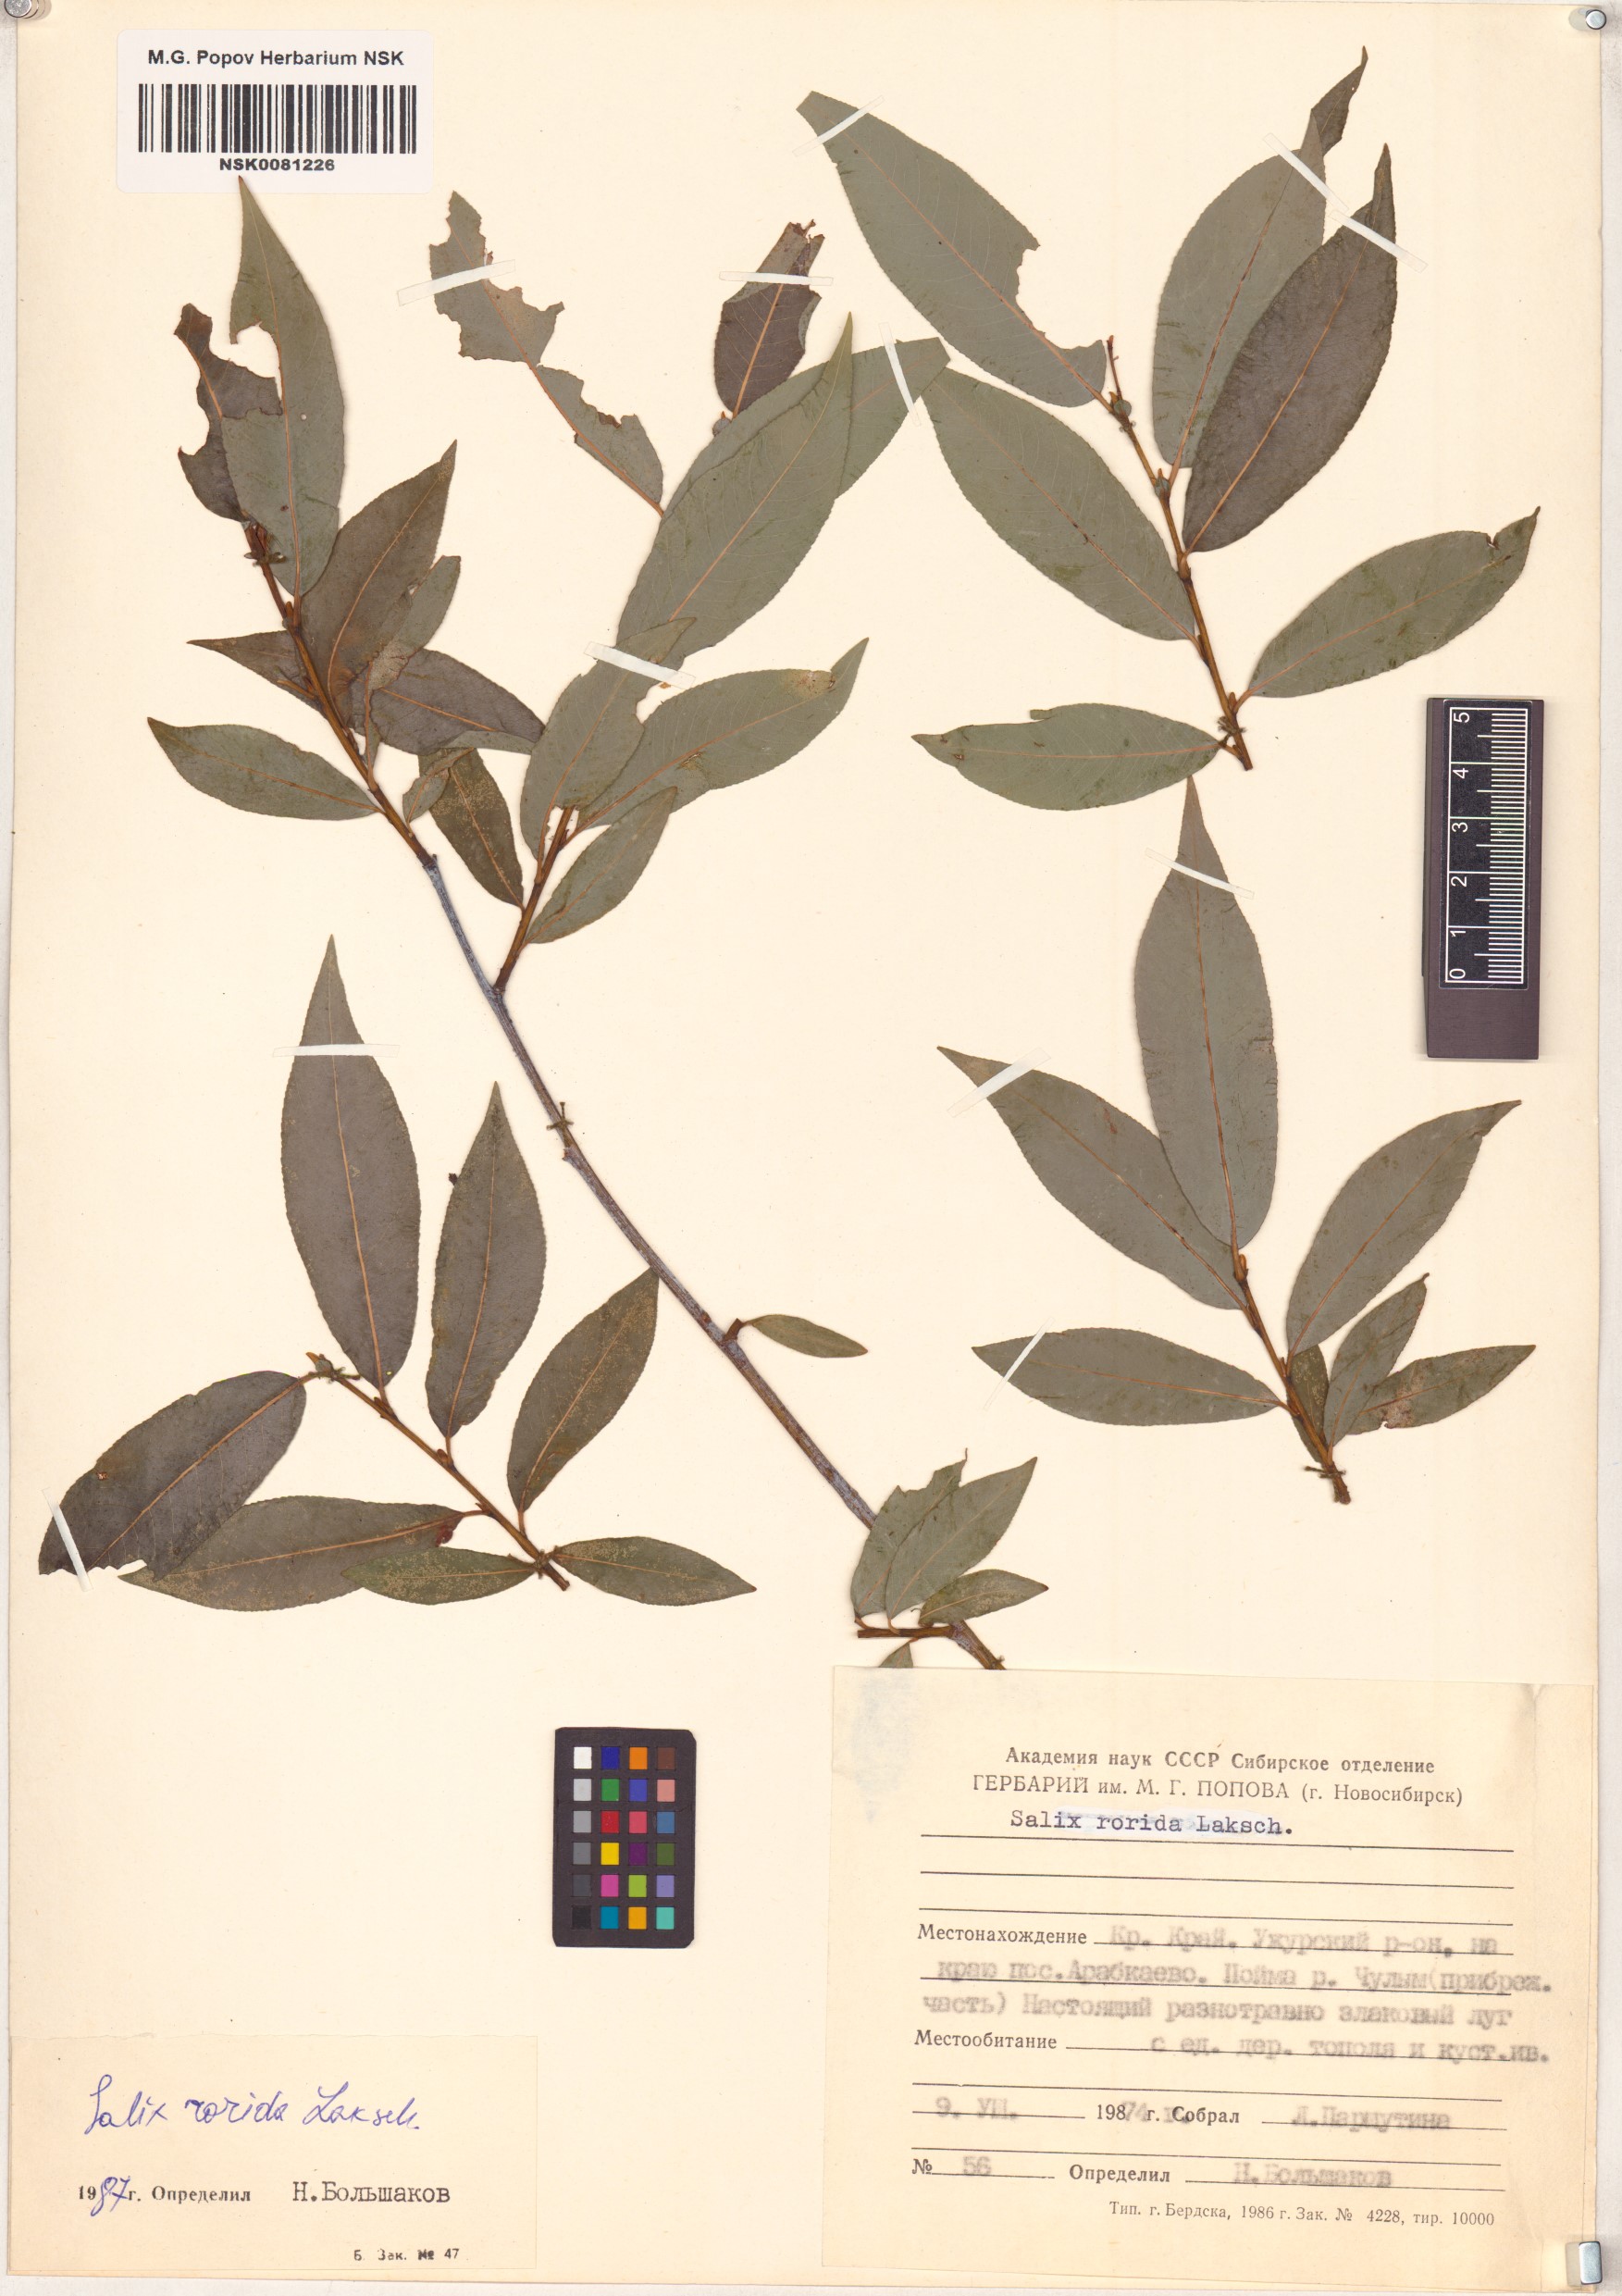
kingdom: Plantae
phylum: Tracheophyta
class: Magnoliopsida
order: Malpighiales
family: Salicaceae
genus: Salix
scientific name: Salix rorida
